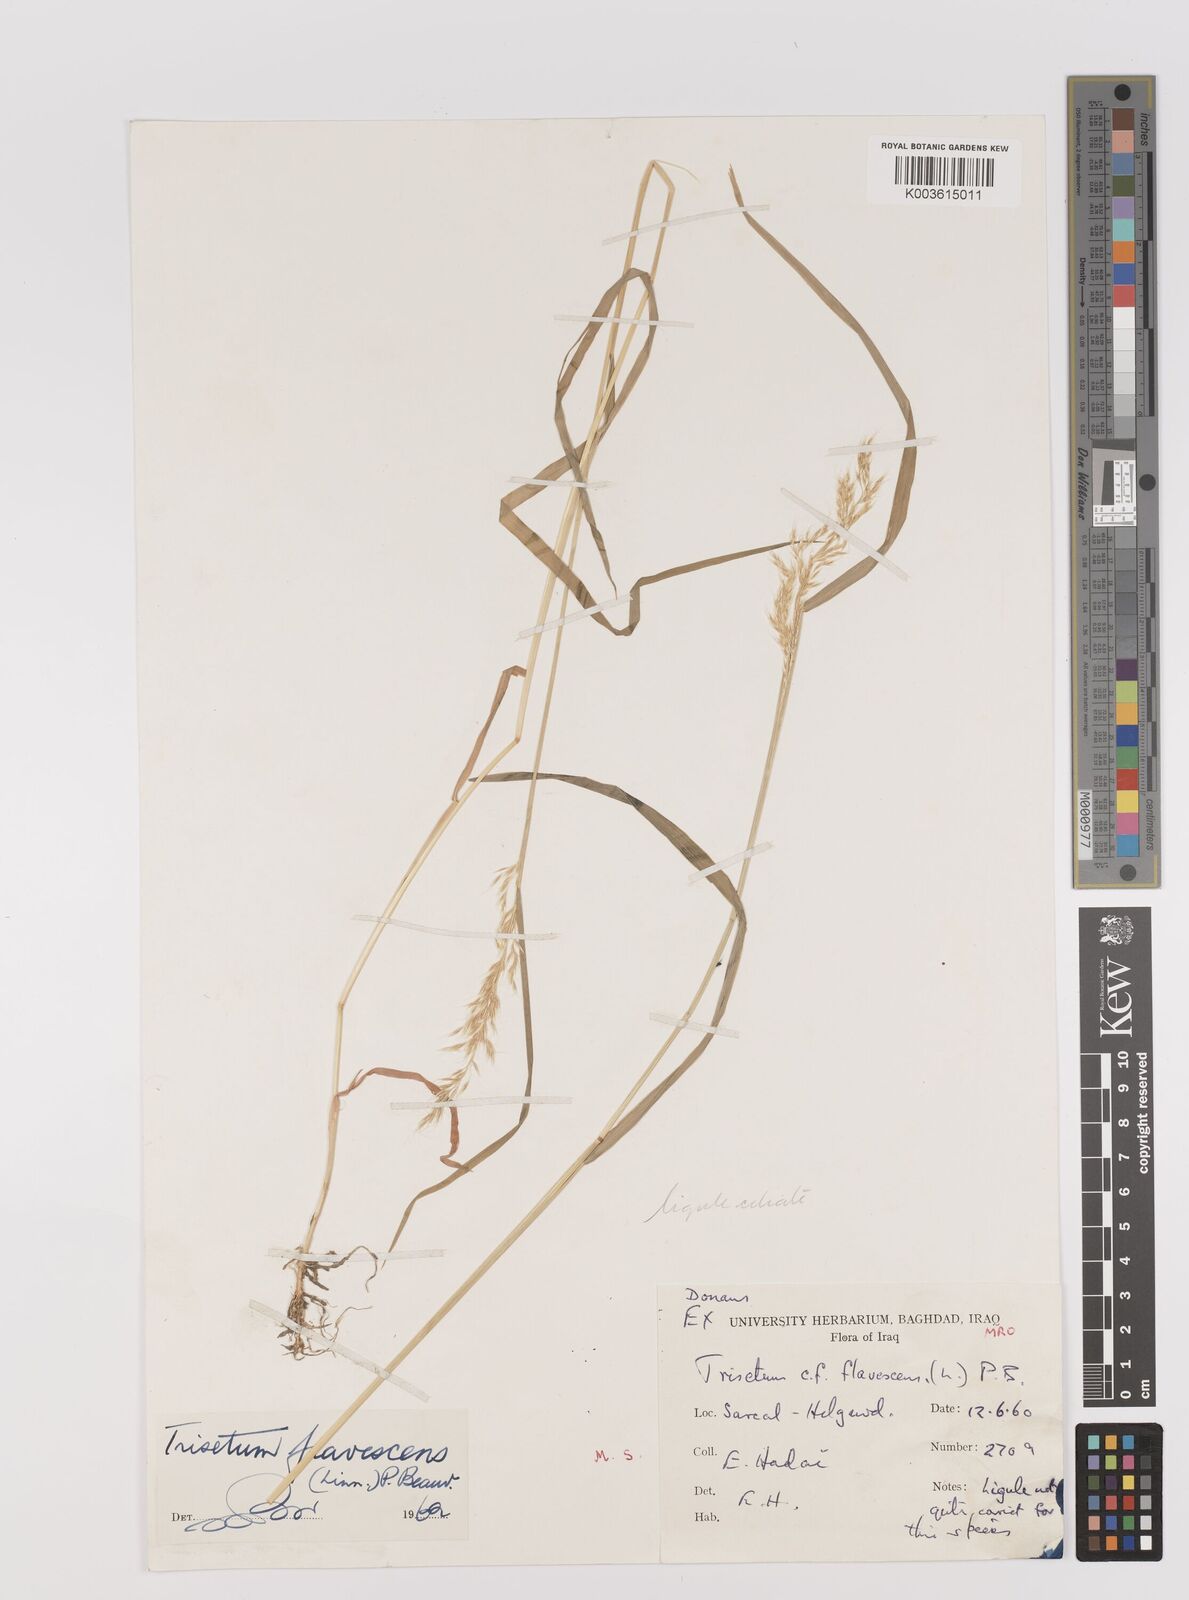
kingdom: Plantae
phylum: Tracheophyta
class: Liliopsida
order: Poales
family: Poaceae
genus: Trisetum
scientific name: Trisetum flavescens
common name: Yellow oat-grass
